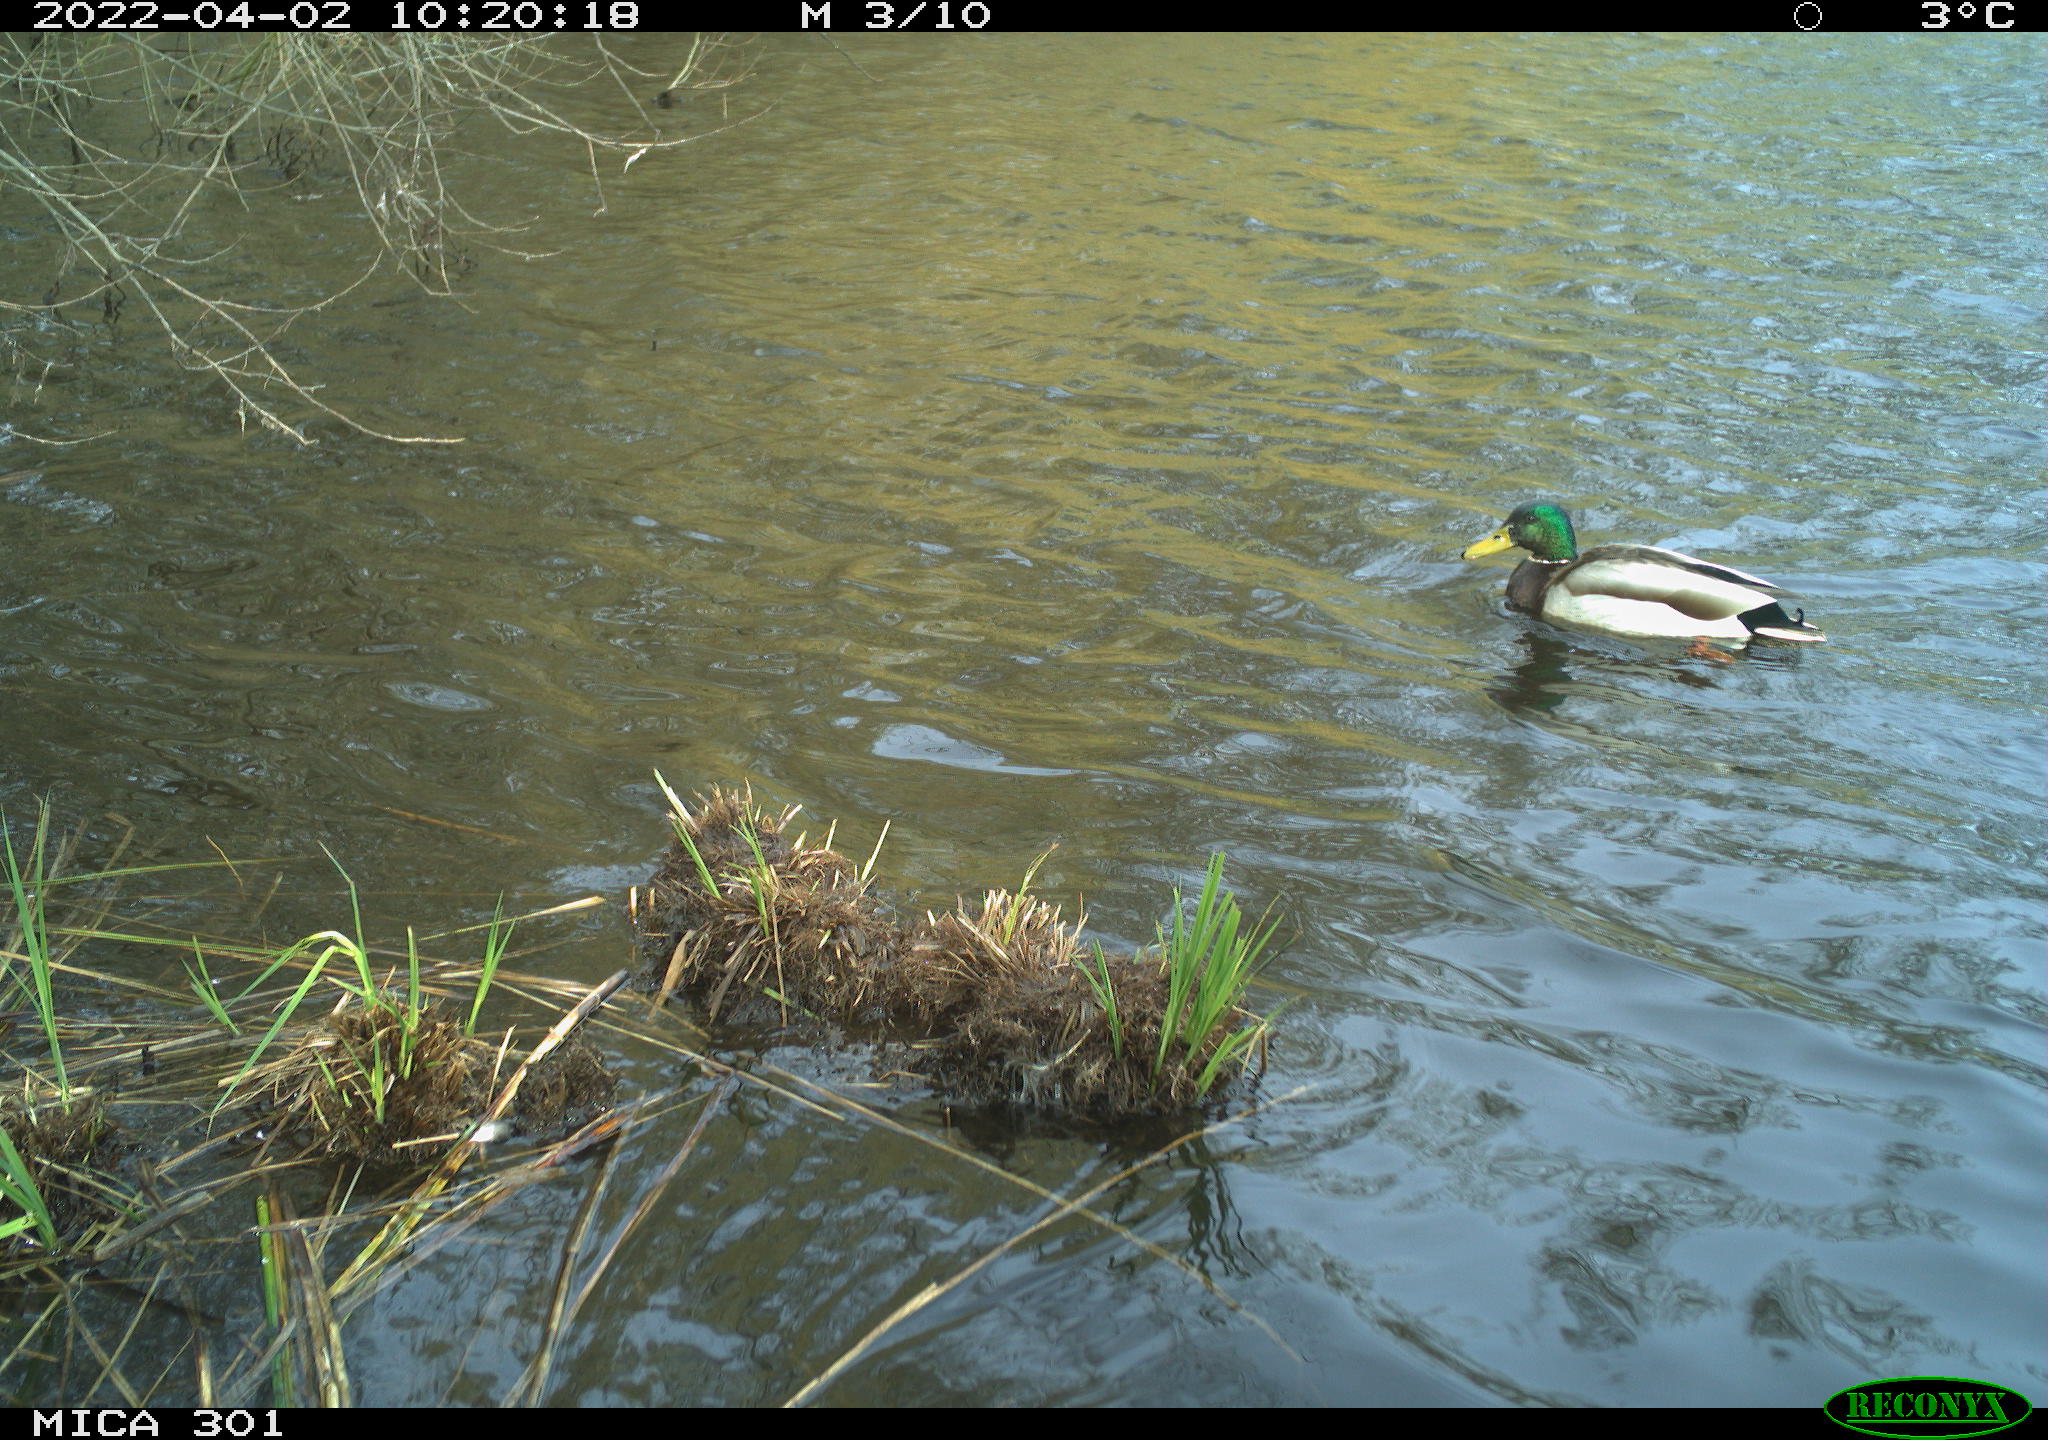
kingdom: Animalia
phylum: Chordata
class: Aves
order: Gruiformes
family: Rallidae
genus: Fulica
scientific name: Fulica atra
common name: Eurasian coot
